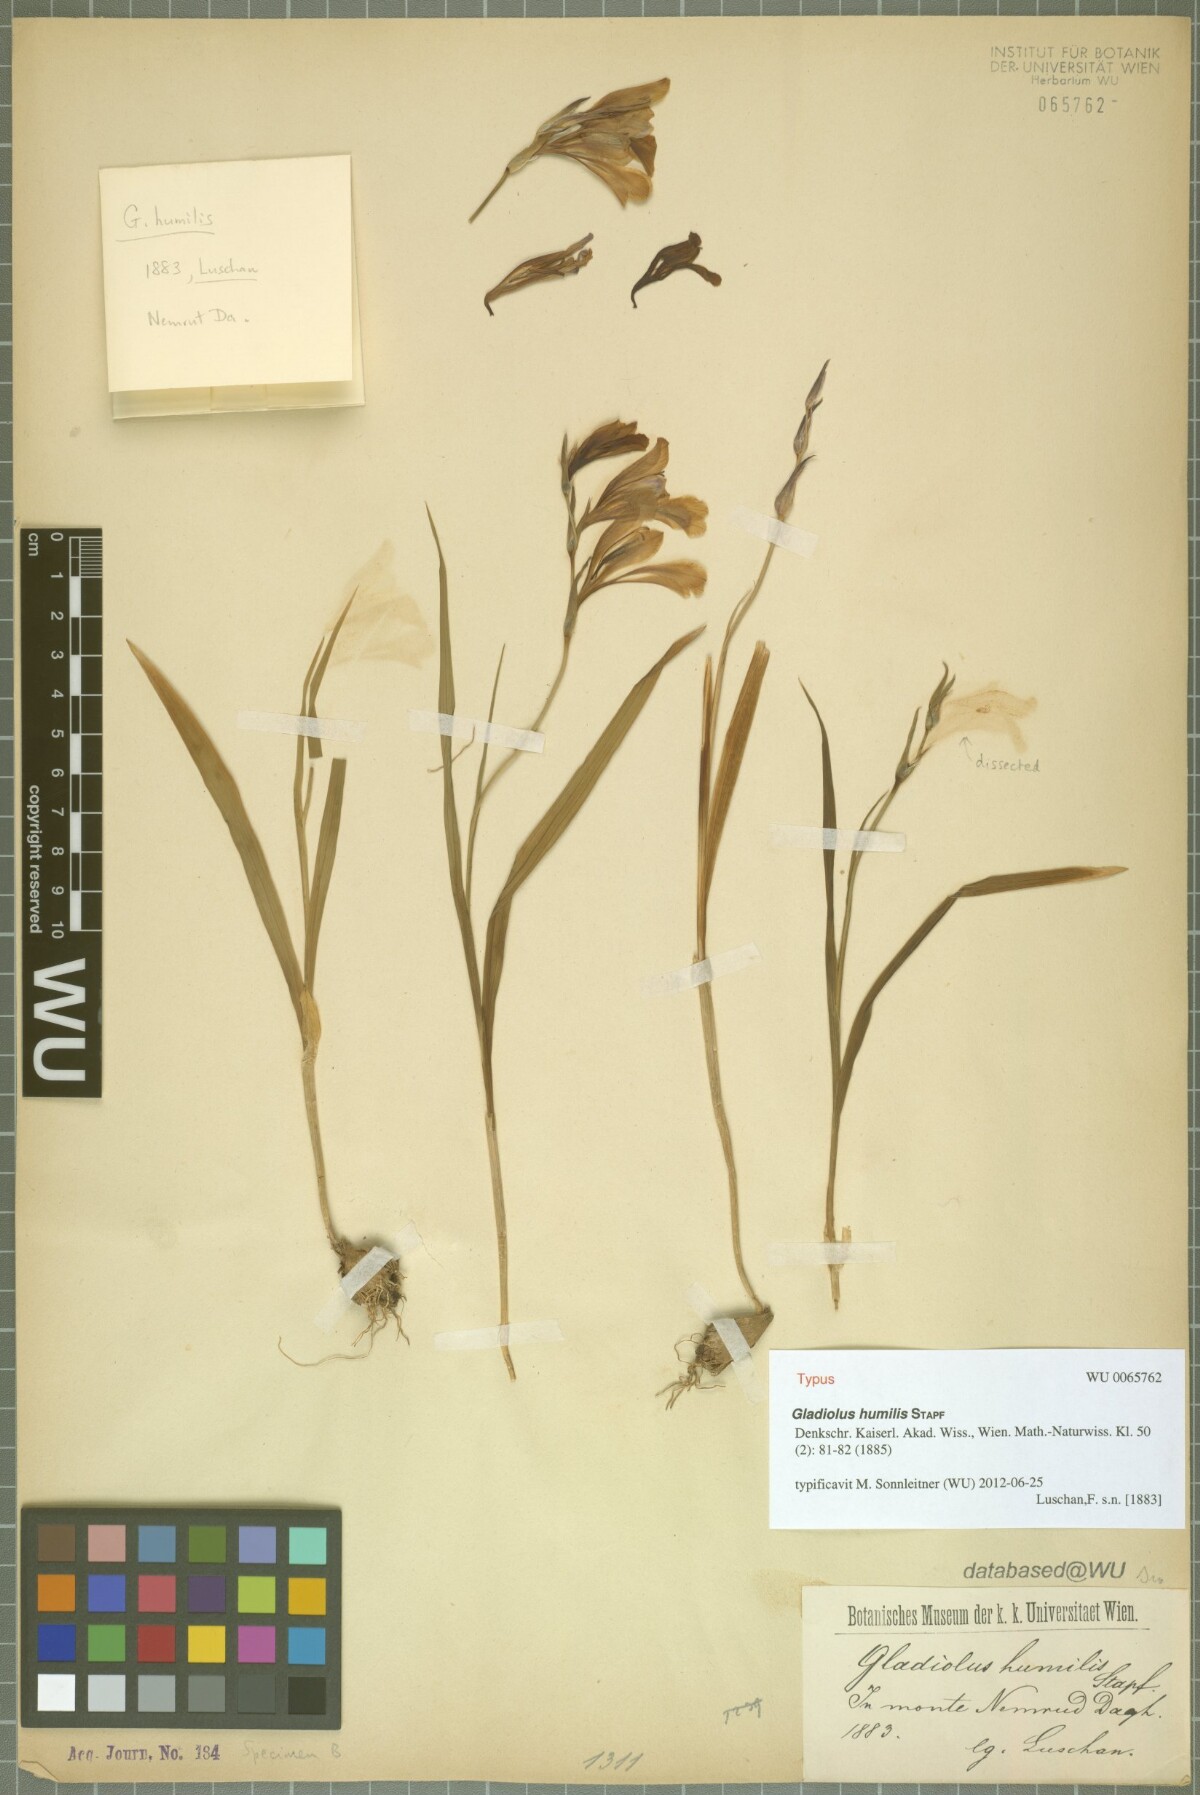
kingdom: Plantae
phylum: Tracheophyta
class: Liliopsida
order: Asparagales
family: Iridaceae
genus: Gladiolus
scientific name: Gladiolus humilis
